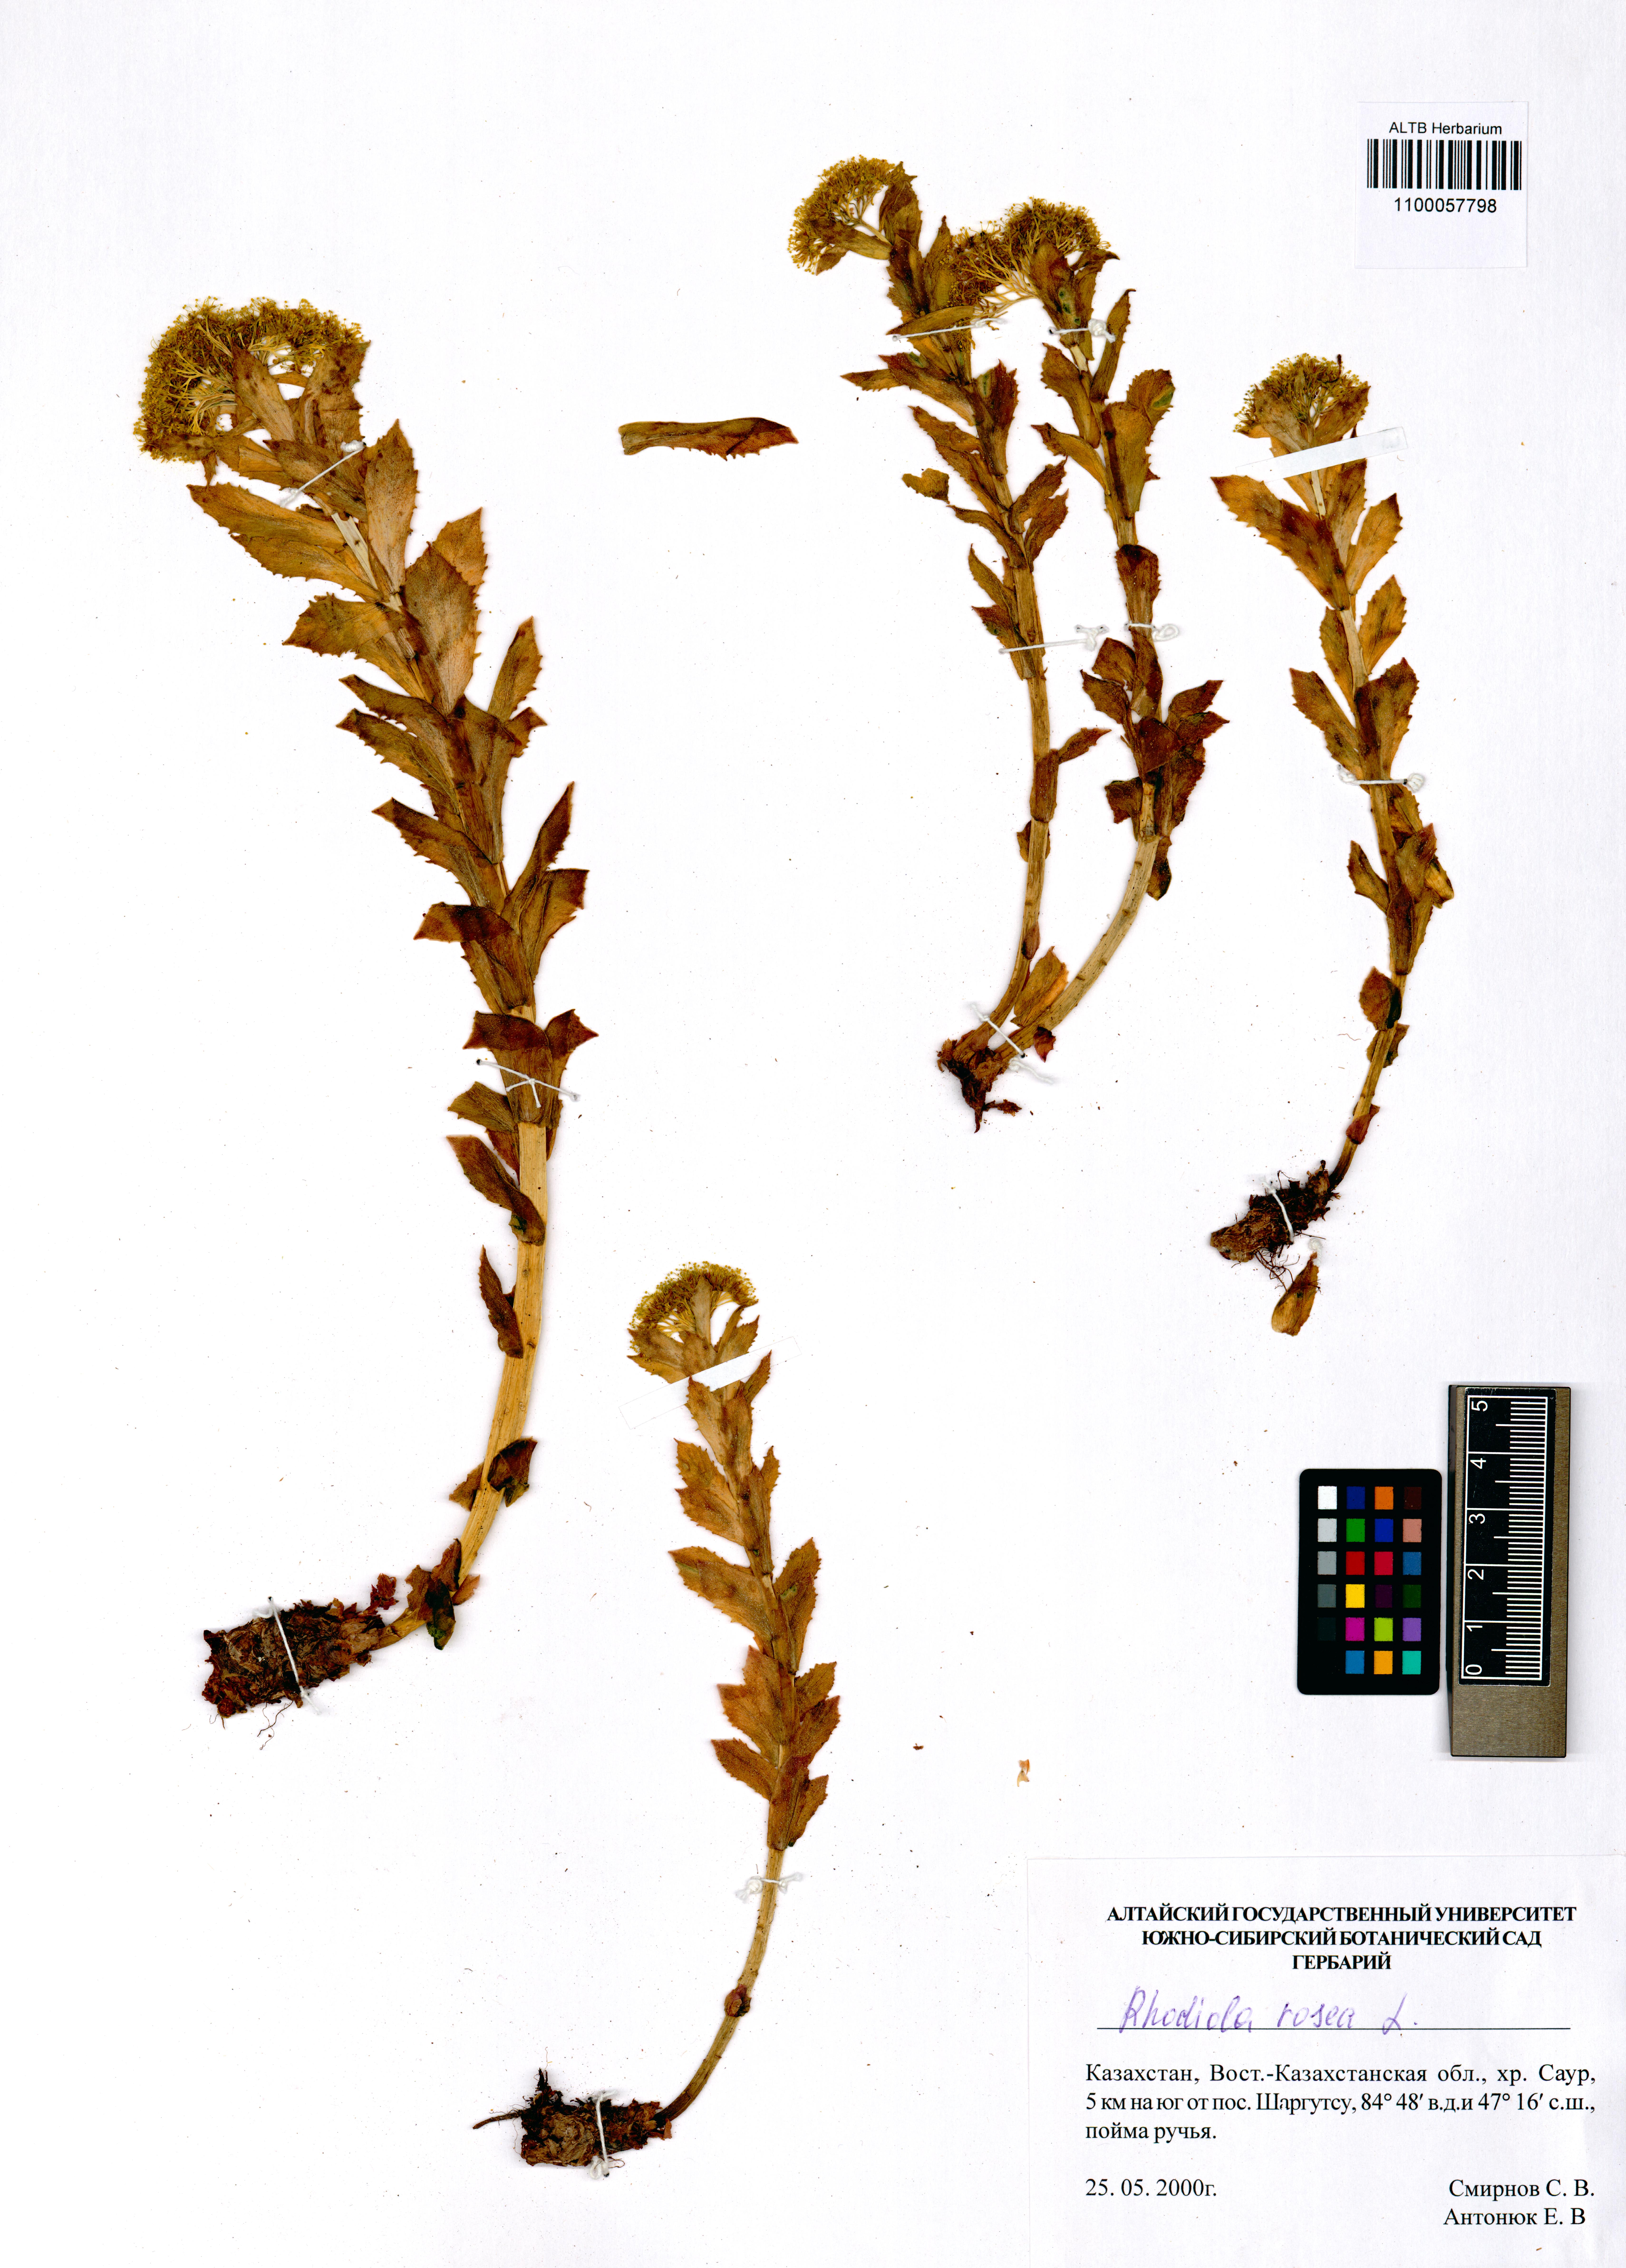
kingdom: Plantae
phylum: Tracheophyta
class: Magnoliopsida
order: Saxifragales
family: Crassulaceae
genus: Rhodiola
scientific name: Rhodiola rosea
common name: Roseroot
